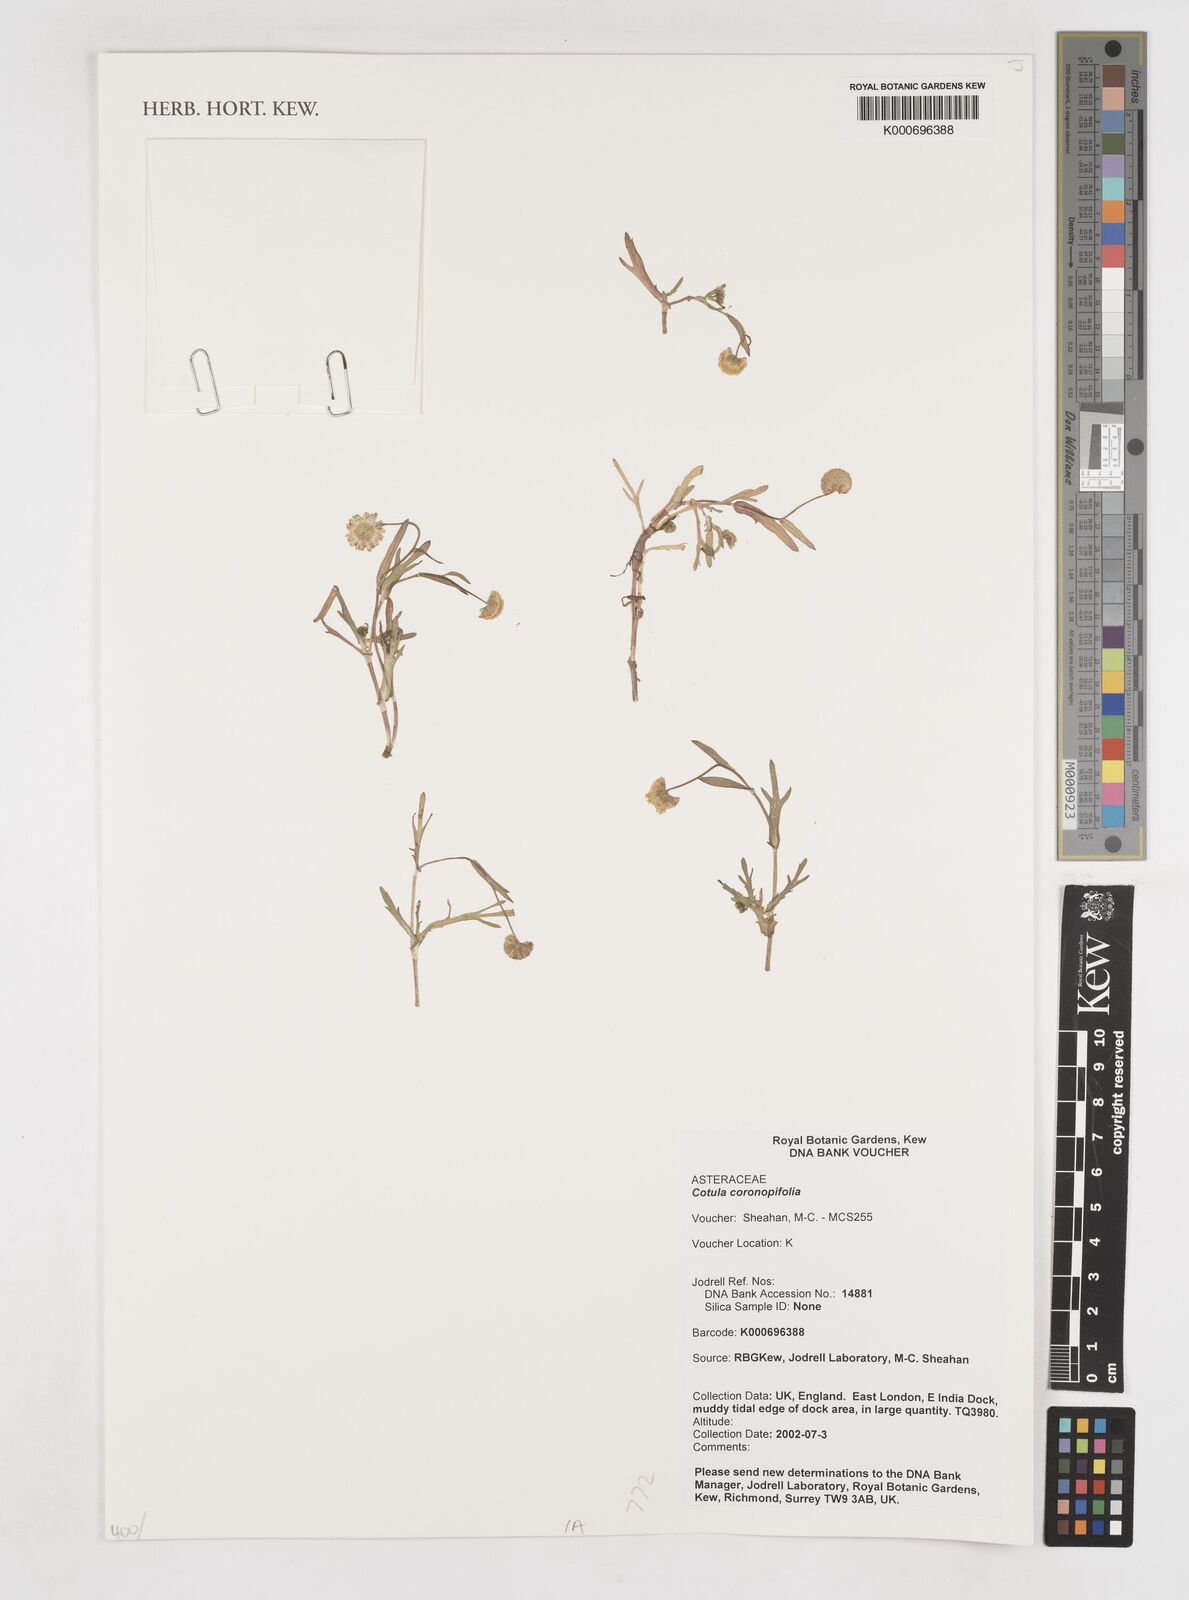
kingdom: Plantae
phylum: Tracheophyta
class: Magnoliopsida
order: Asterales
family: Asteraceae
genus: Cotula
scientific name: Cotula coronopifolia
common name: Buttonweed
